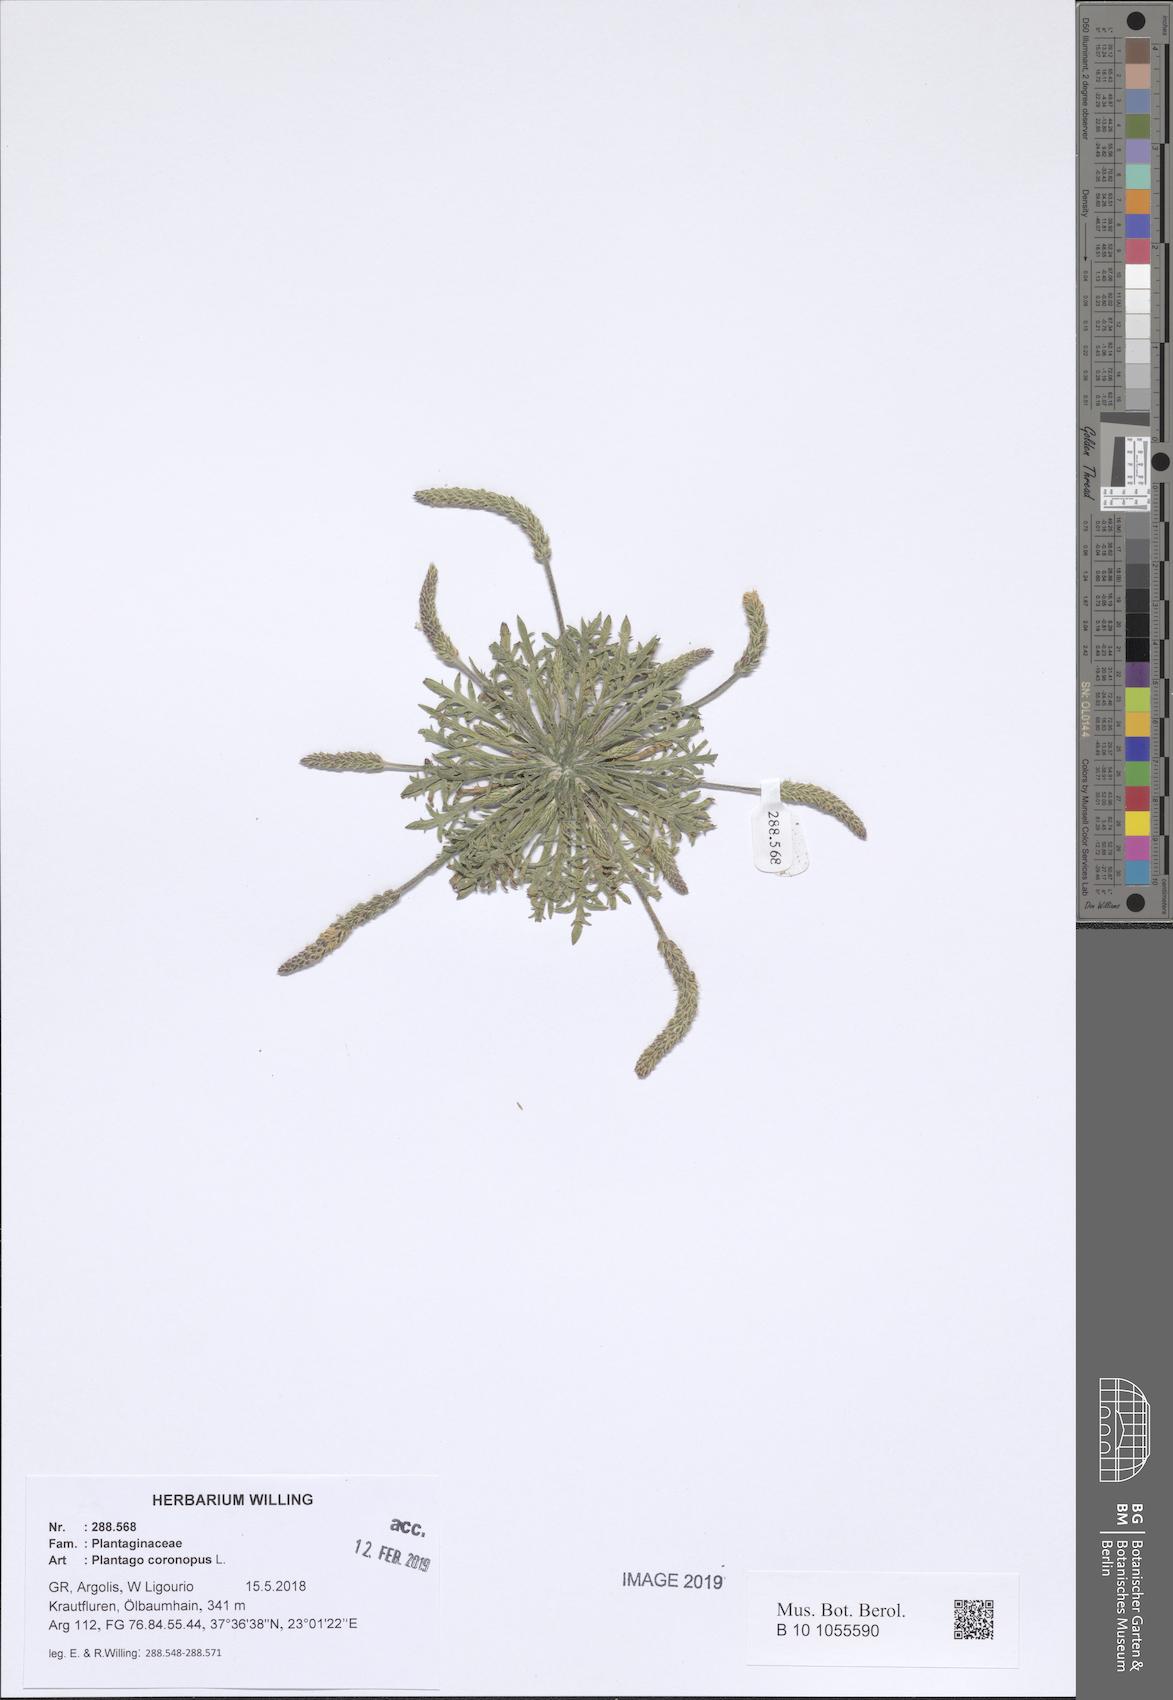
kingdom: Plantae
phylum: Tracheophyta
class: Magnoliopsida
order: Lamiales
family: Plantaginaceae
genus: Plantago
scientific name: Plantago coronopus
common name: Buck's-horn plantain
